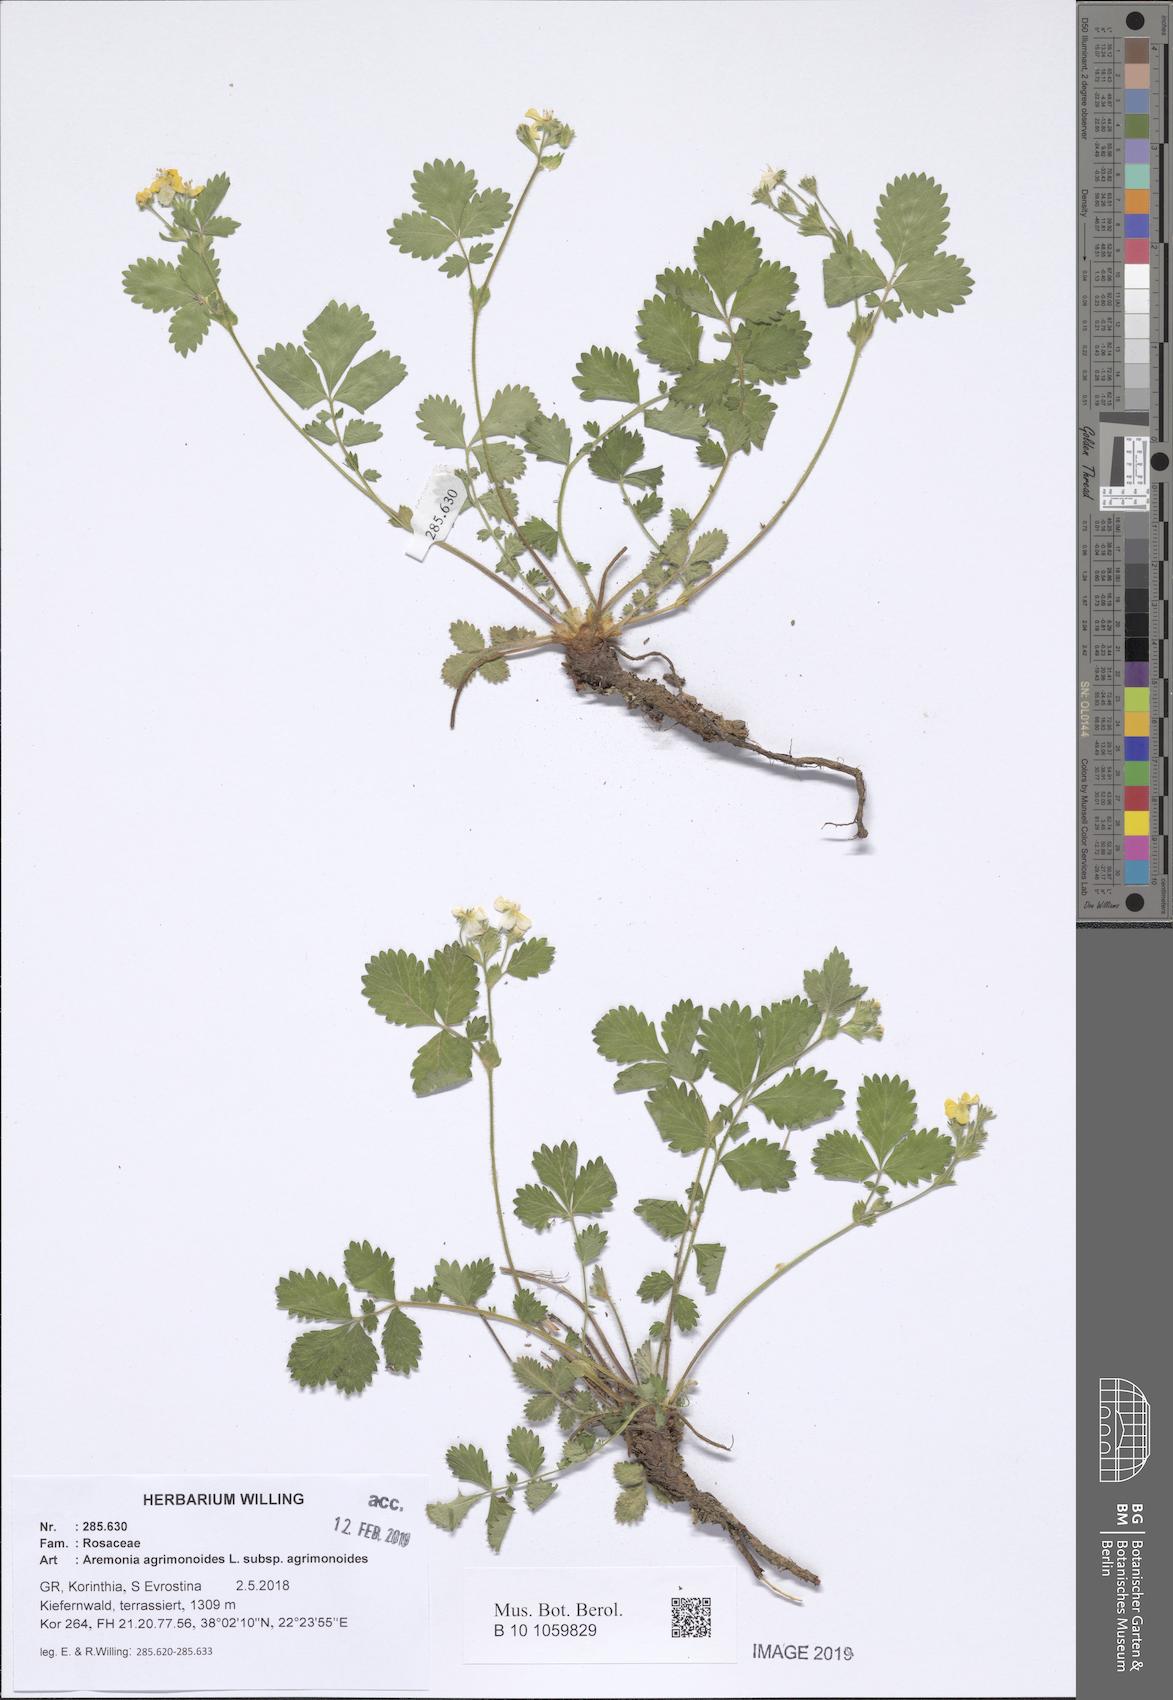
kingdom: Plantae
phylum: Tracheophyta
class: Magnoliopsida
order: Rosales
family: Rosaceae
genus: Aremonia
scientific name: Aremonia agrimonoides
